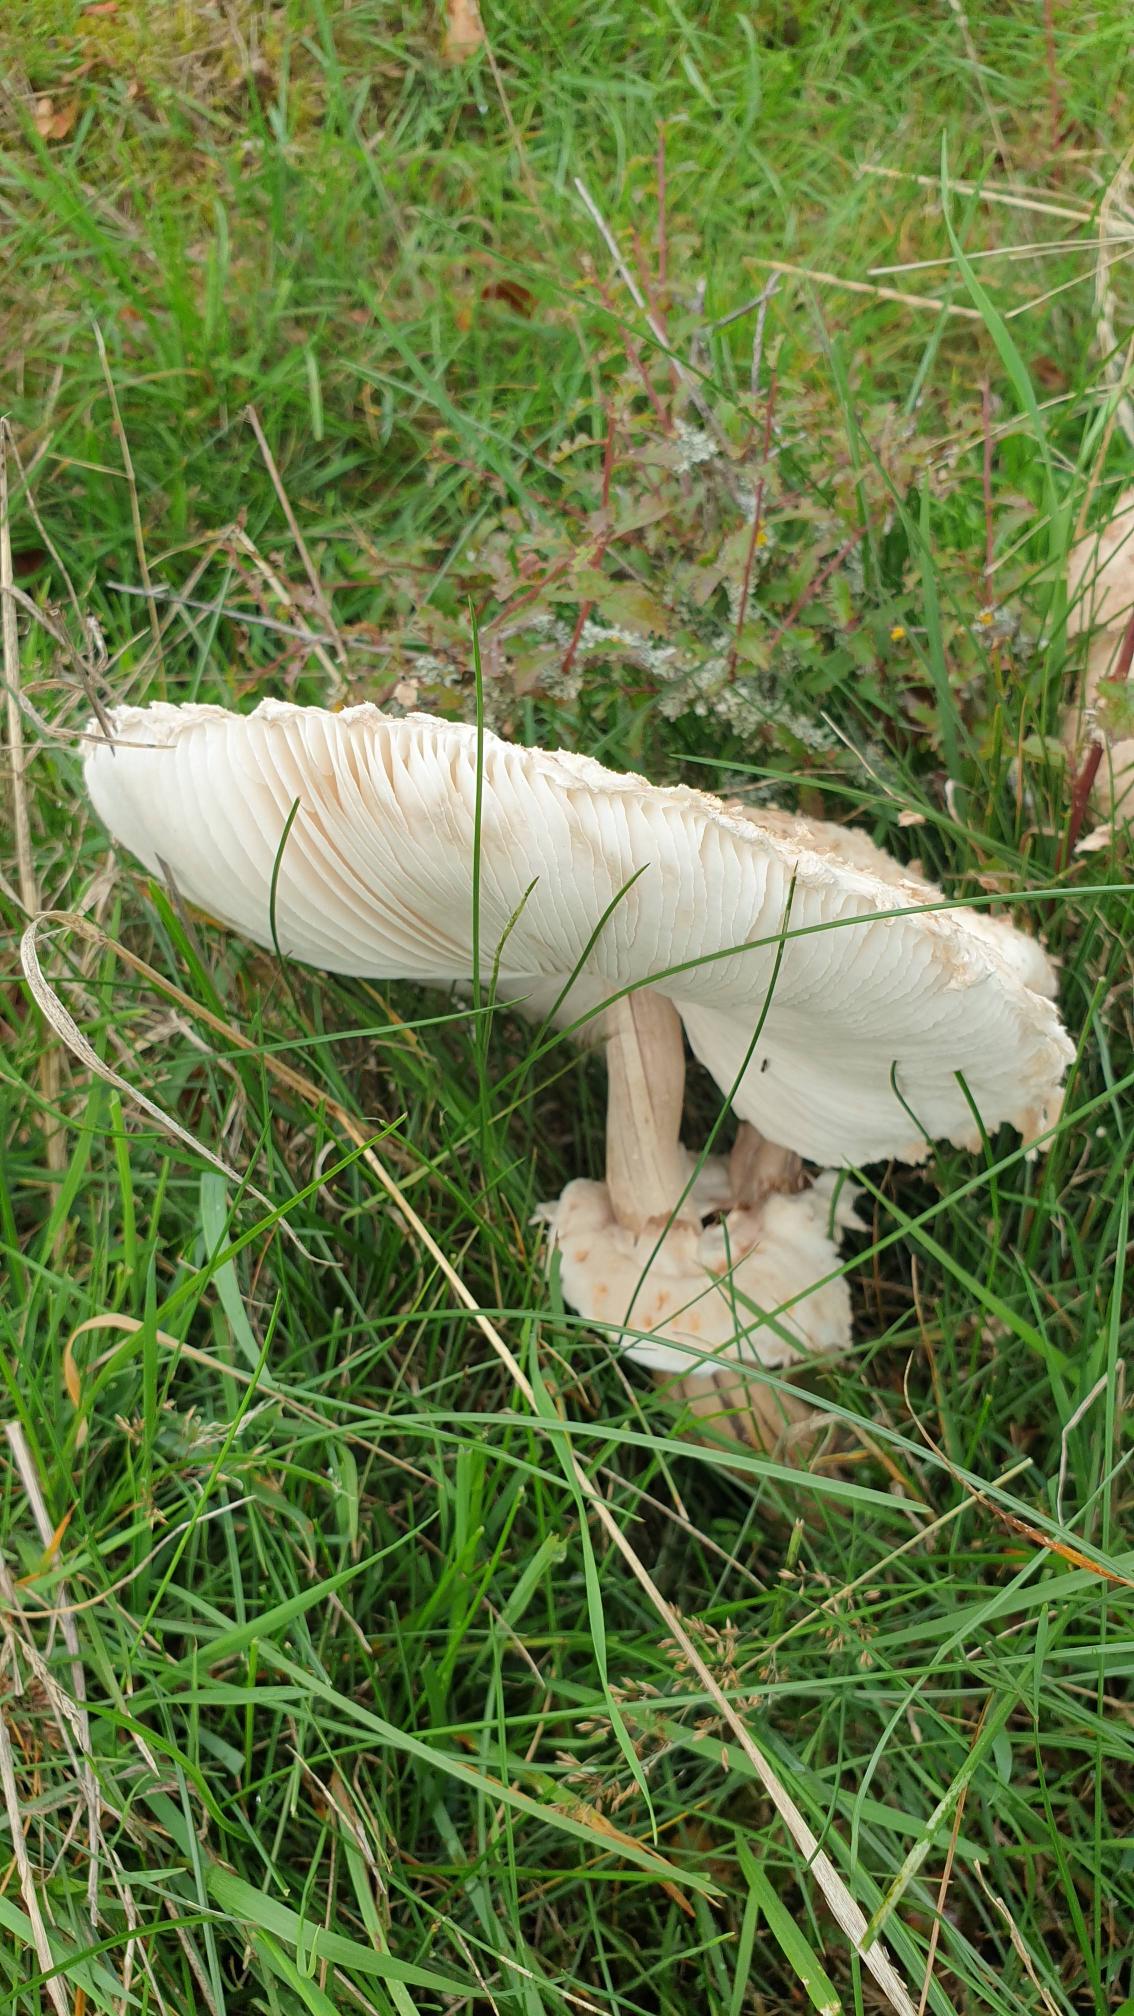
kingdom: Fungi
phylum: Basidiomycota
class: Agaricomycetes
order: Agaricales
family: Agaricaceae
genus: Macrolepiota
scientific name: Macrolepiota procera
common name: Stor kæmpeparasolhat
